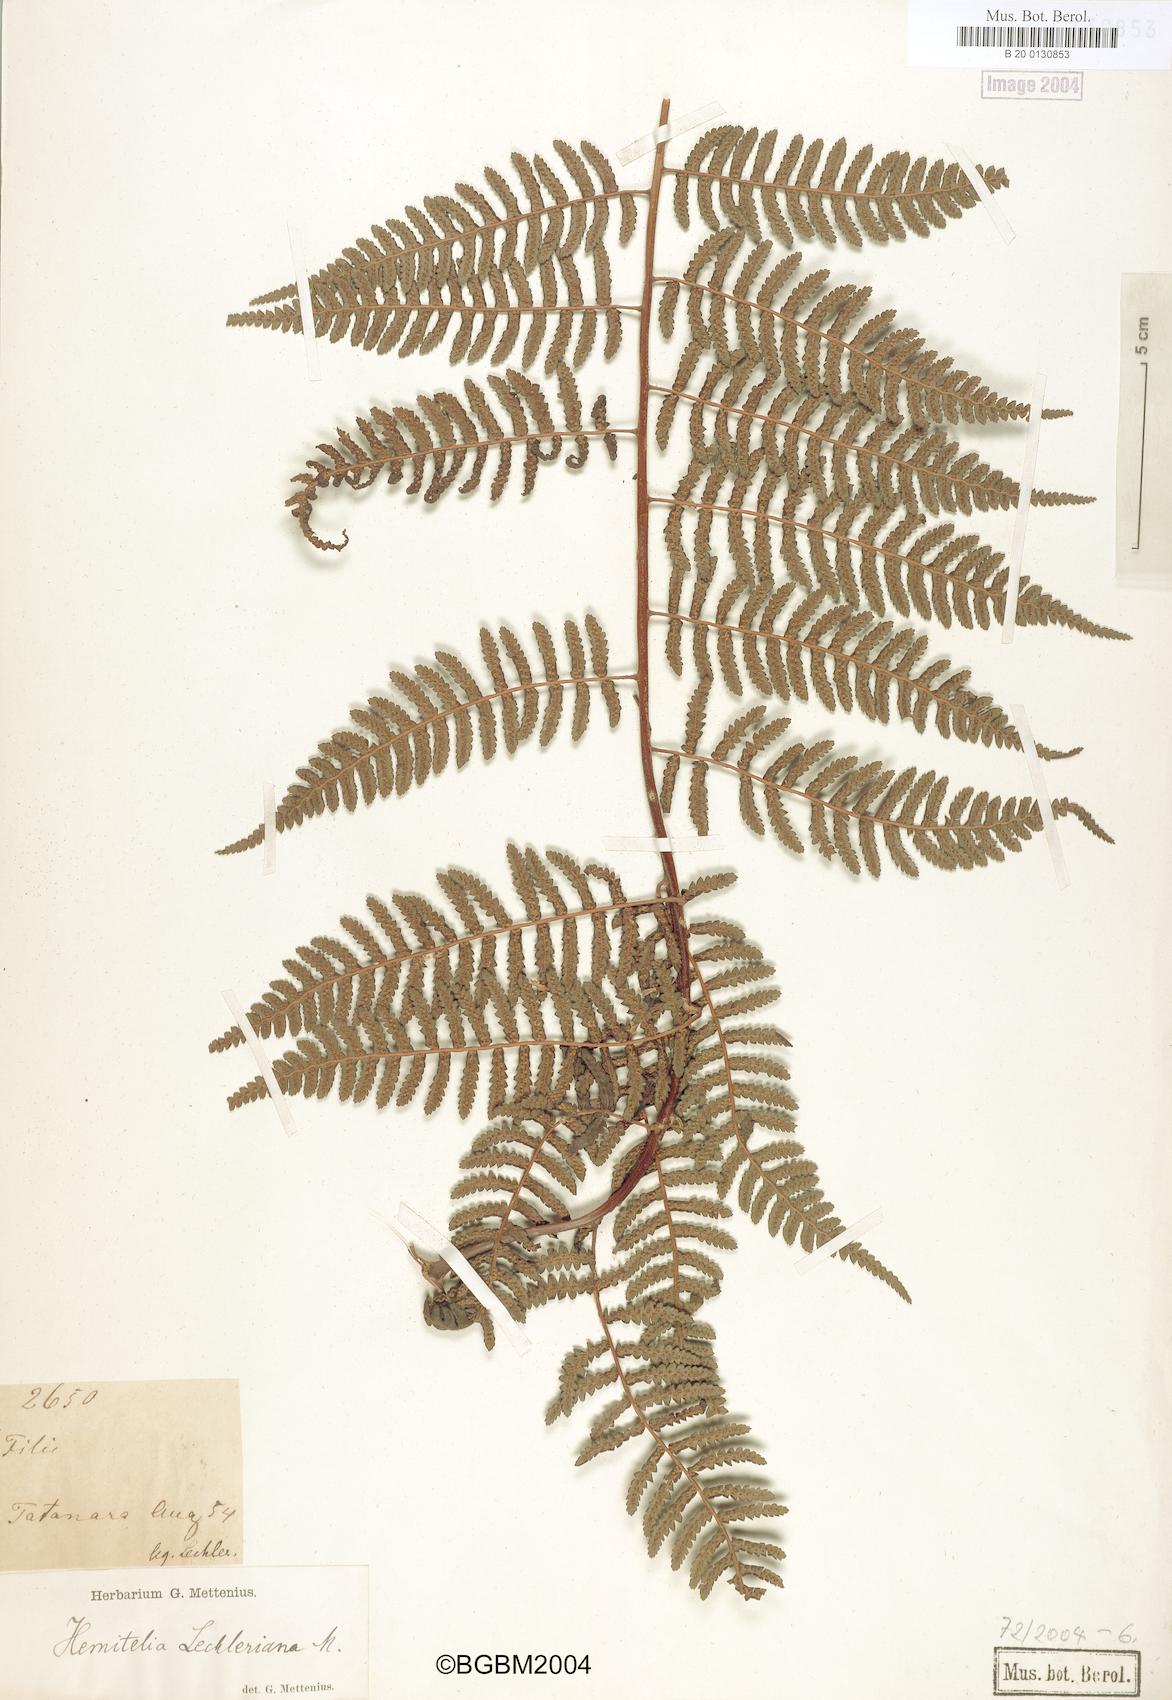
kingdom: Plantae
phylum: Tracheophyta
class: Polypodiopsida
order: Cyatheales
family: Cyatheaceae
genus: Cyathea
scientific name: Cyathea vilhelmii
